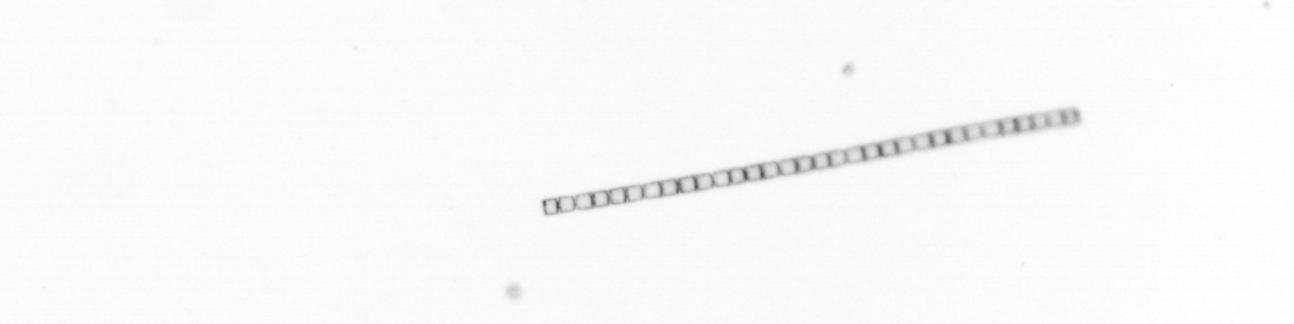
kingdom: Chromista
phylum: Ochrophyta
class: Bacillariophyceae
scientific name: Bacillariophyceae
